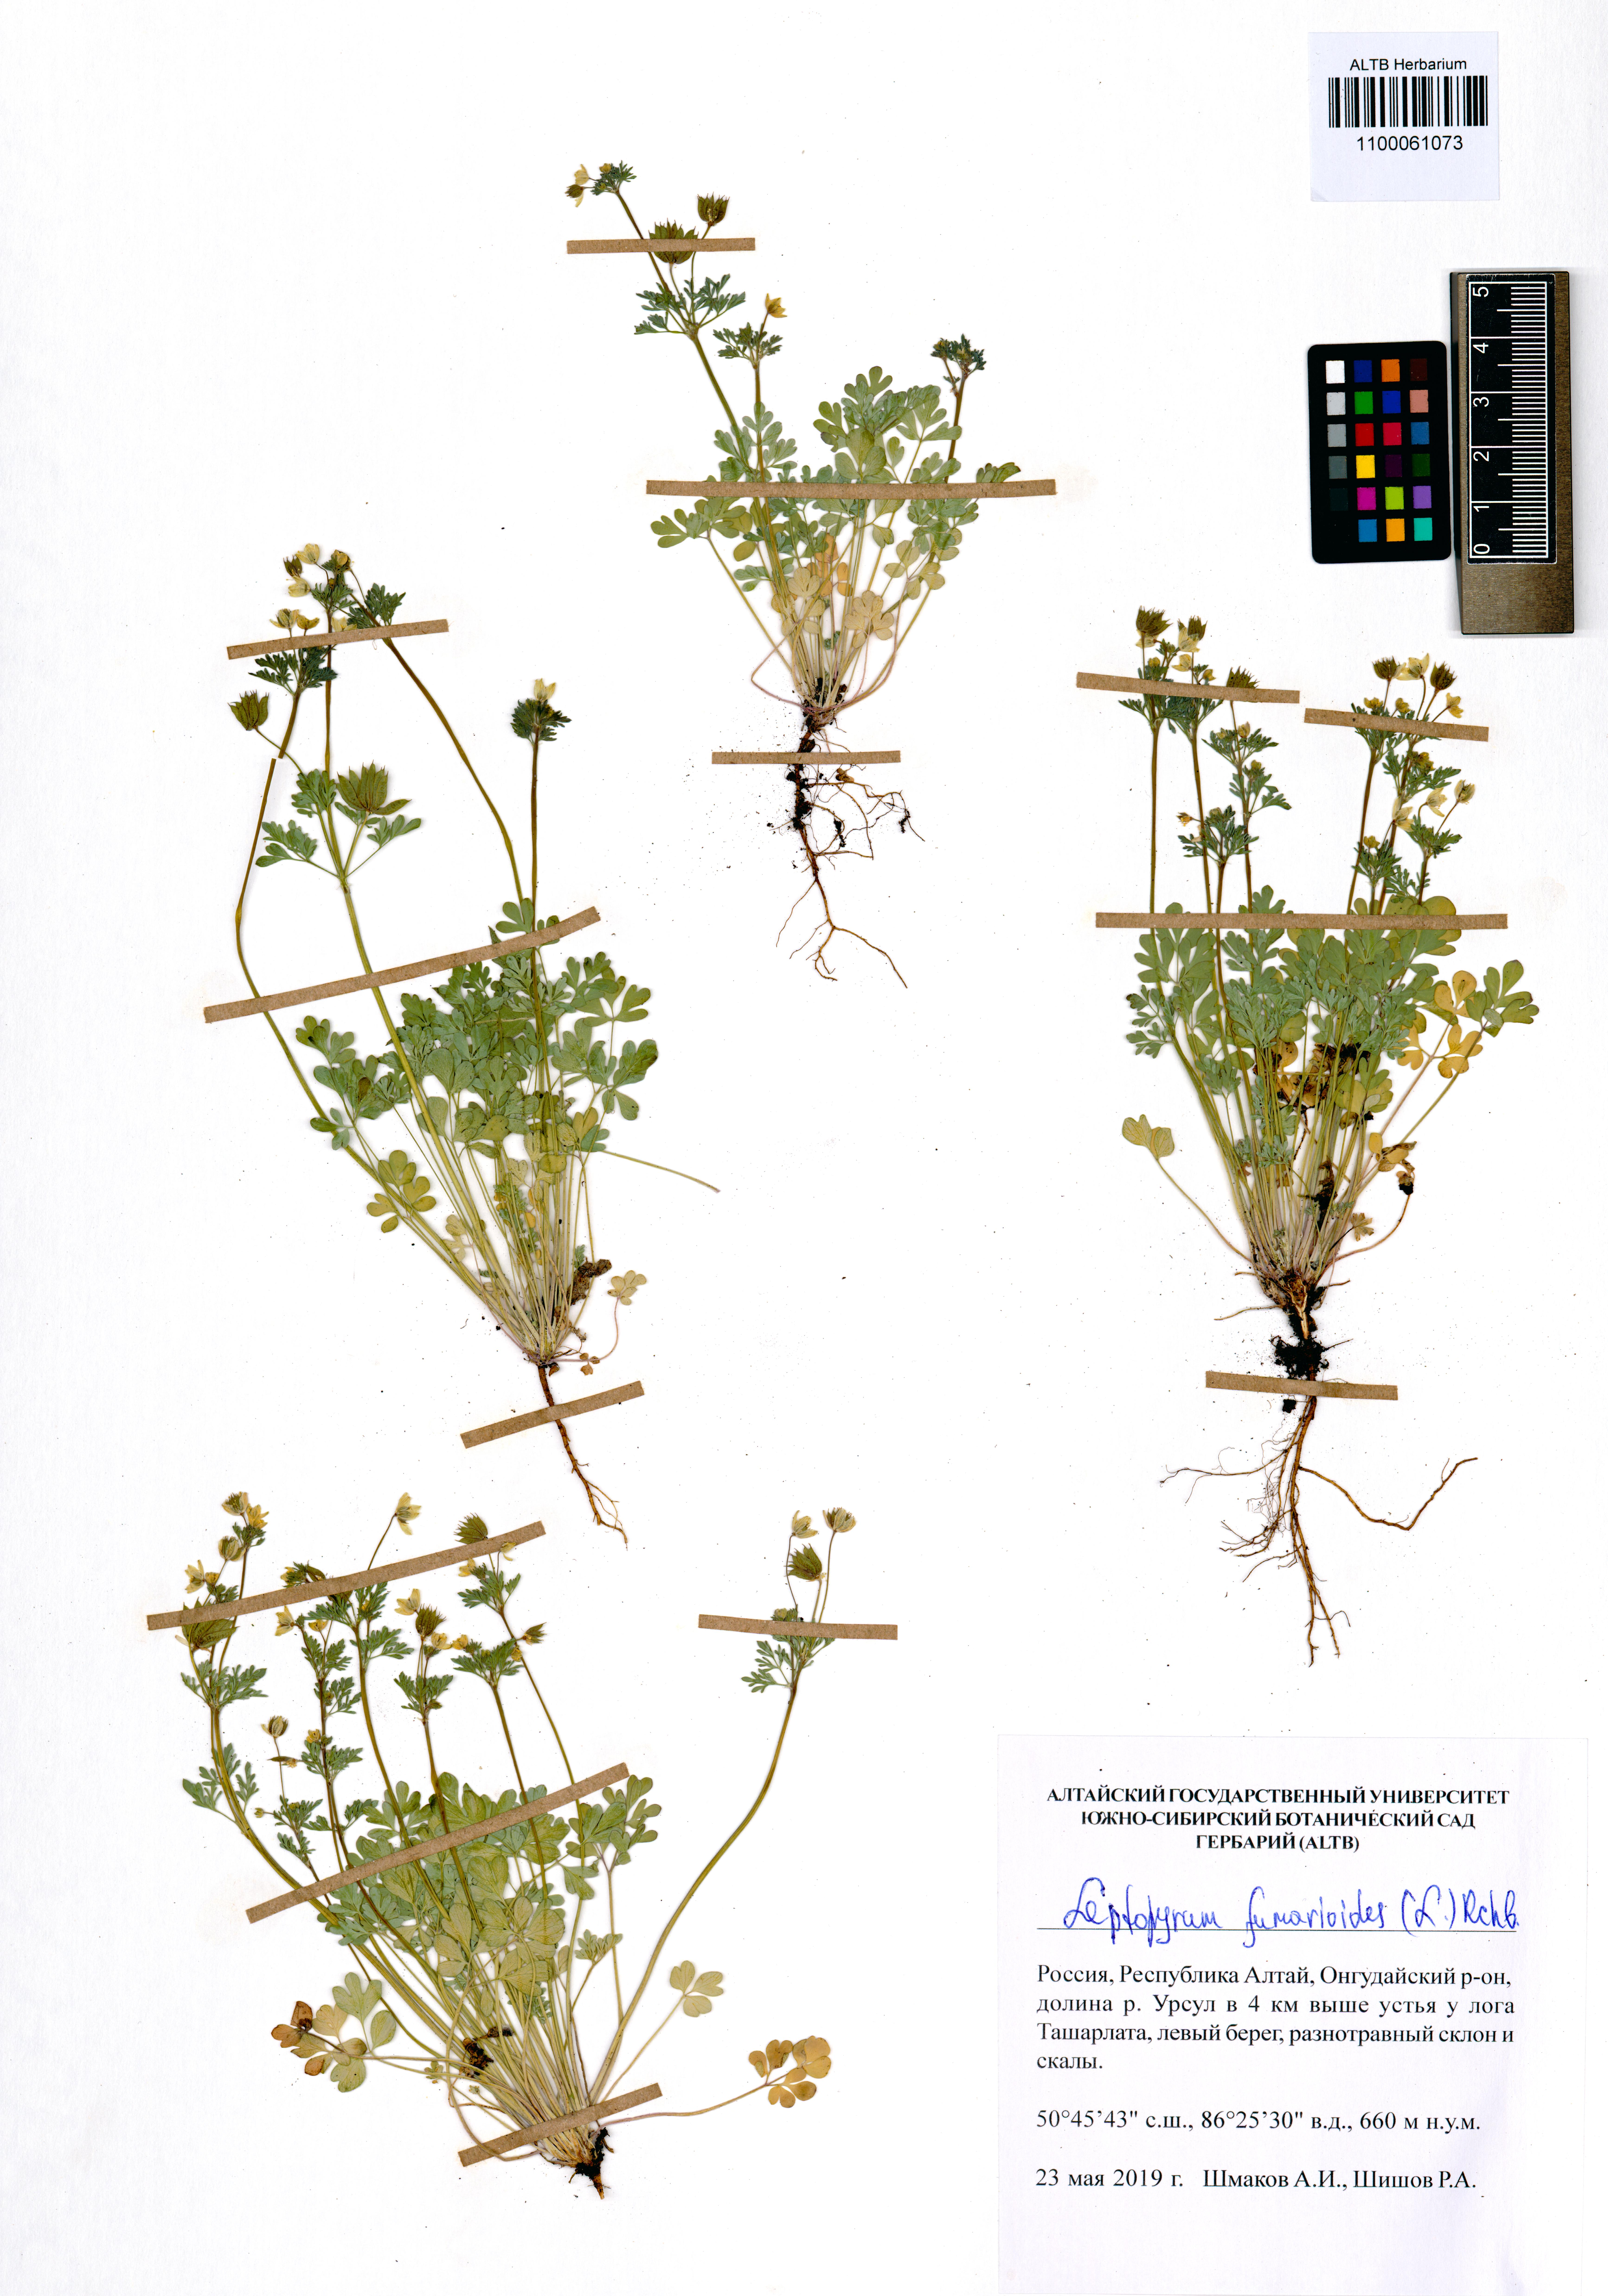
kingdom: Plantae
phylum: Tracheophyta
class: Magnoliopsida
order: Ranunculales
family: Ranunculaceae
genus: Leptopyrum
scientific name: Leptopyrum fumarioides
